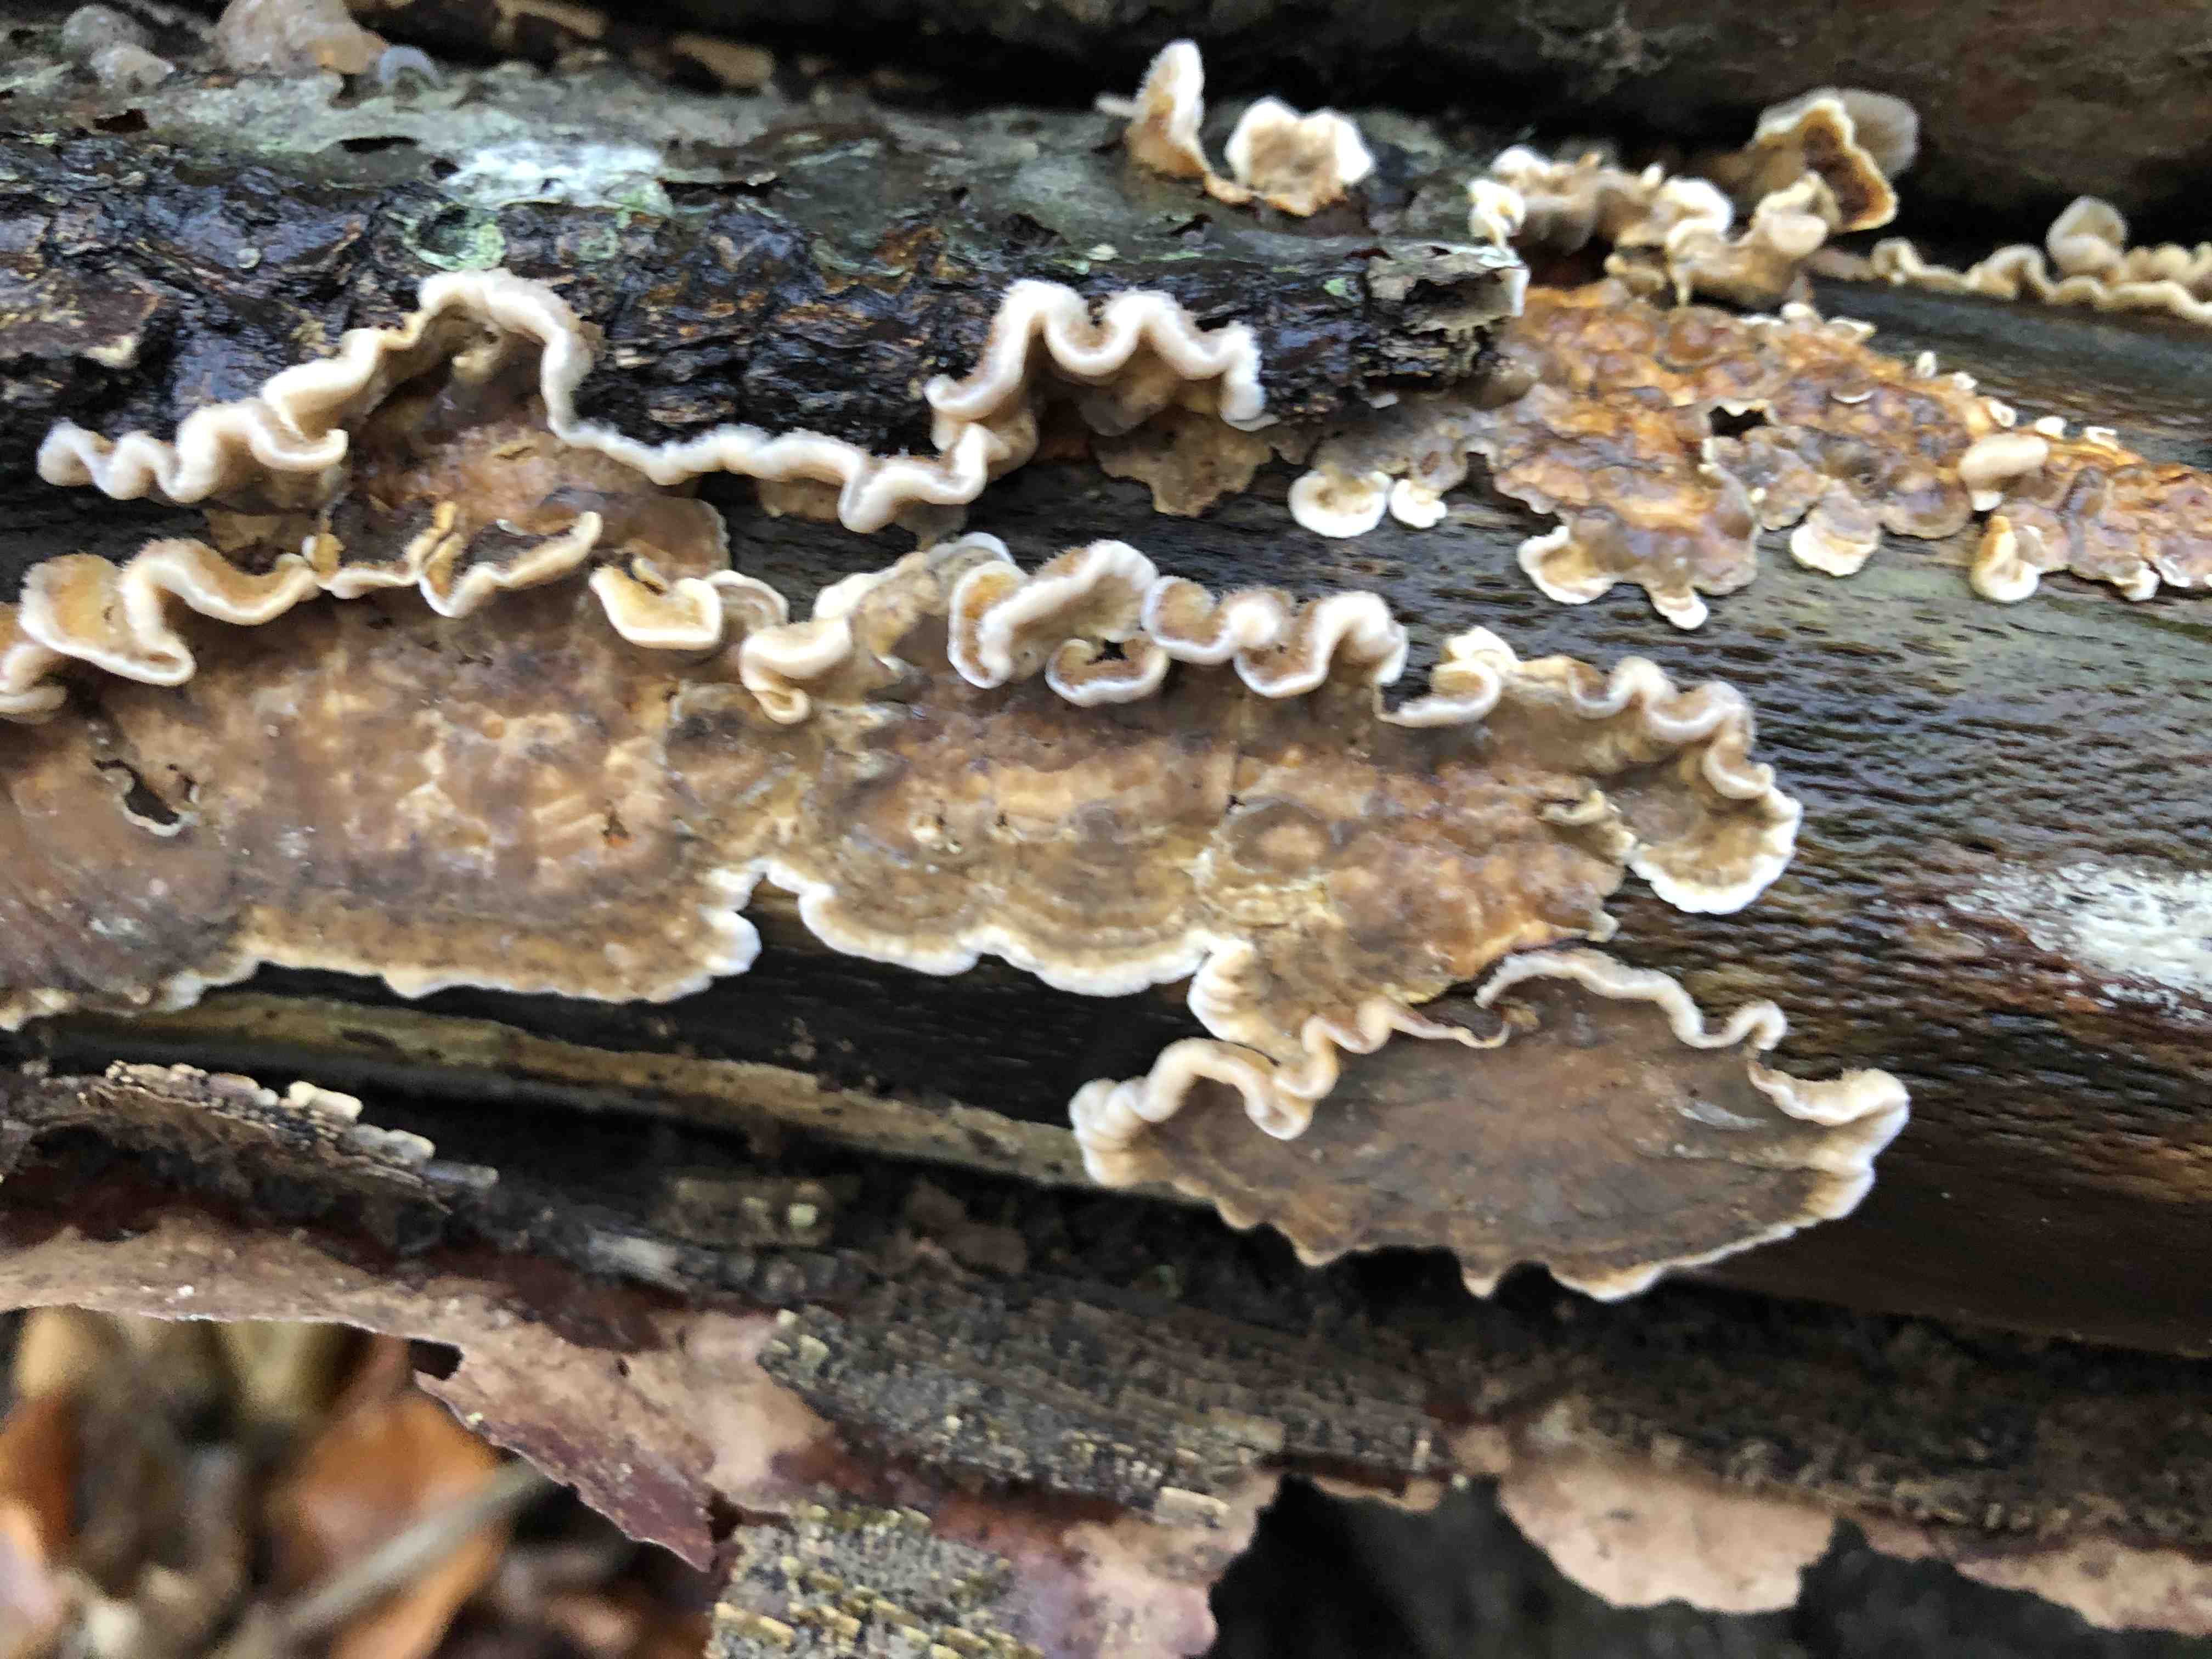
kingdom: Fungi
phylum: Basidiomycota
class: Agaricomycetes
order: Russulales
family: Stereaceae
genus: Stereum
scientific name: Stereum hirsutum
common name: håret lædersvamp
